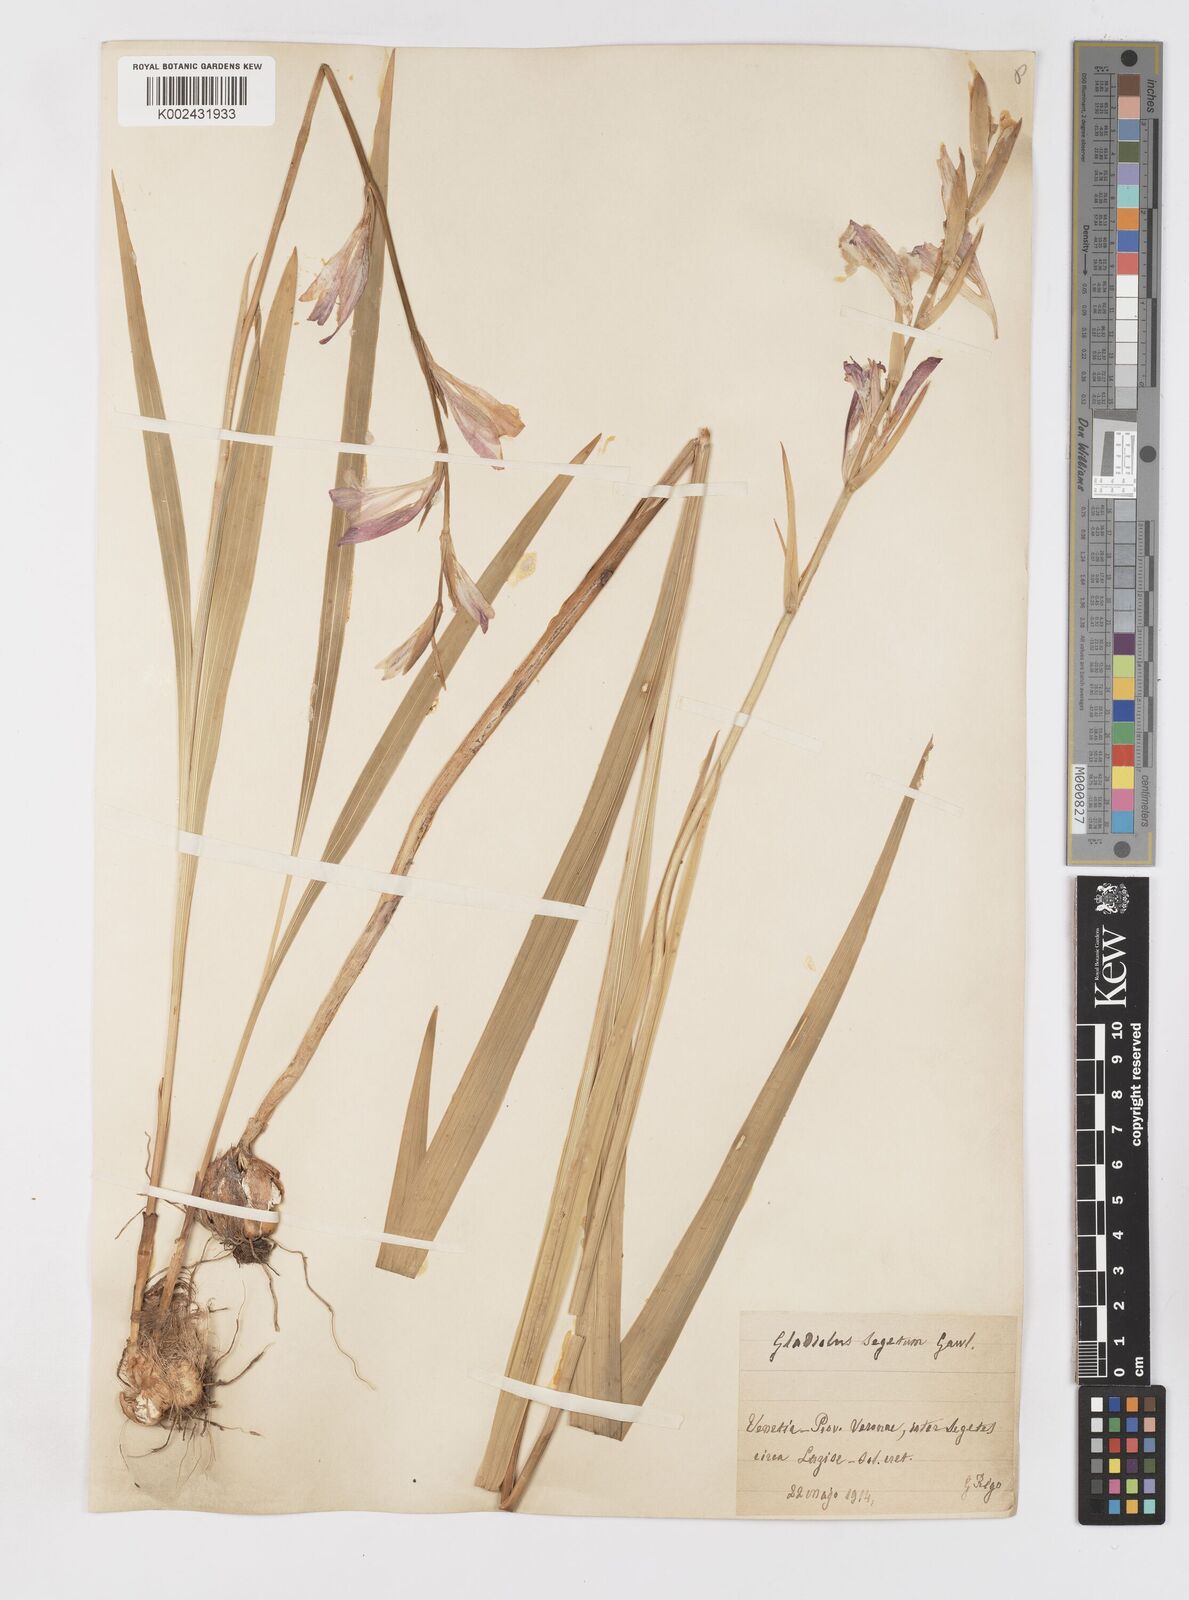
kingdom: Plantae
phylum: Tracheophyta
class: Liliopsida
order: Asparagales
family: Iridaceae
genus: Gladiolus
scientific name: Gladiolus italicus
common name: Field gladiolus
